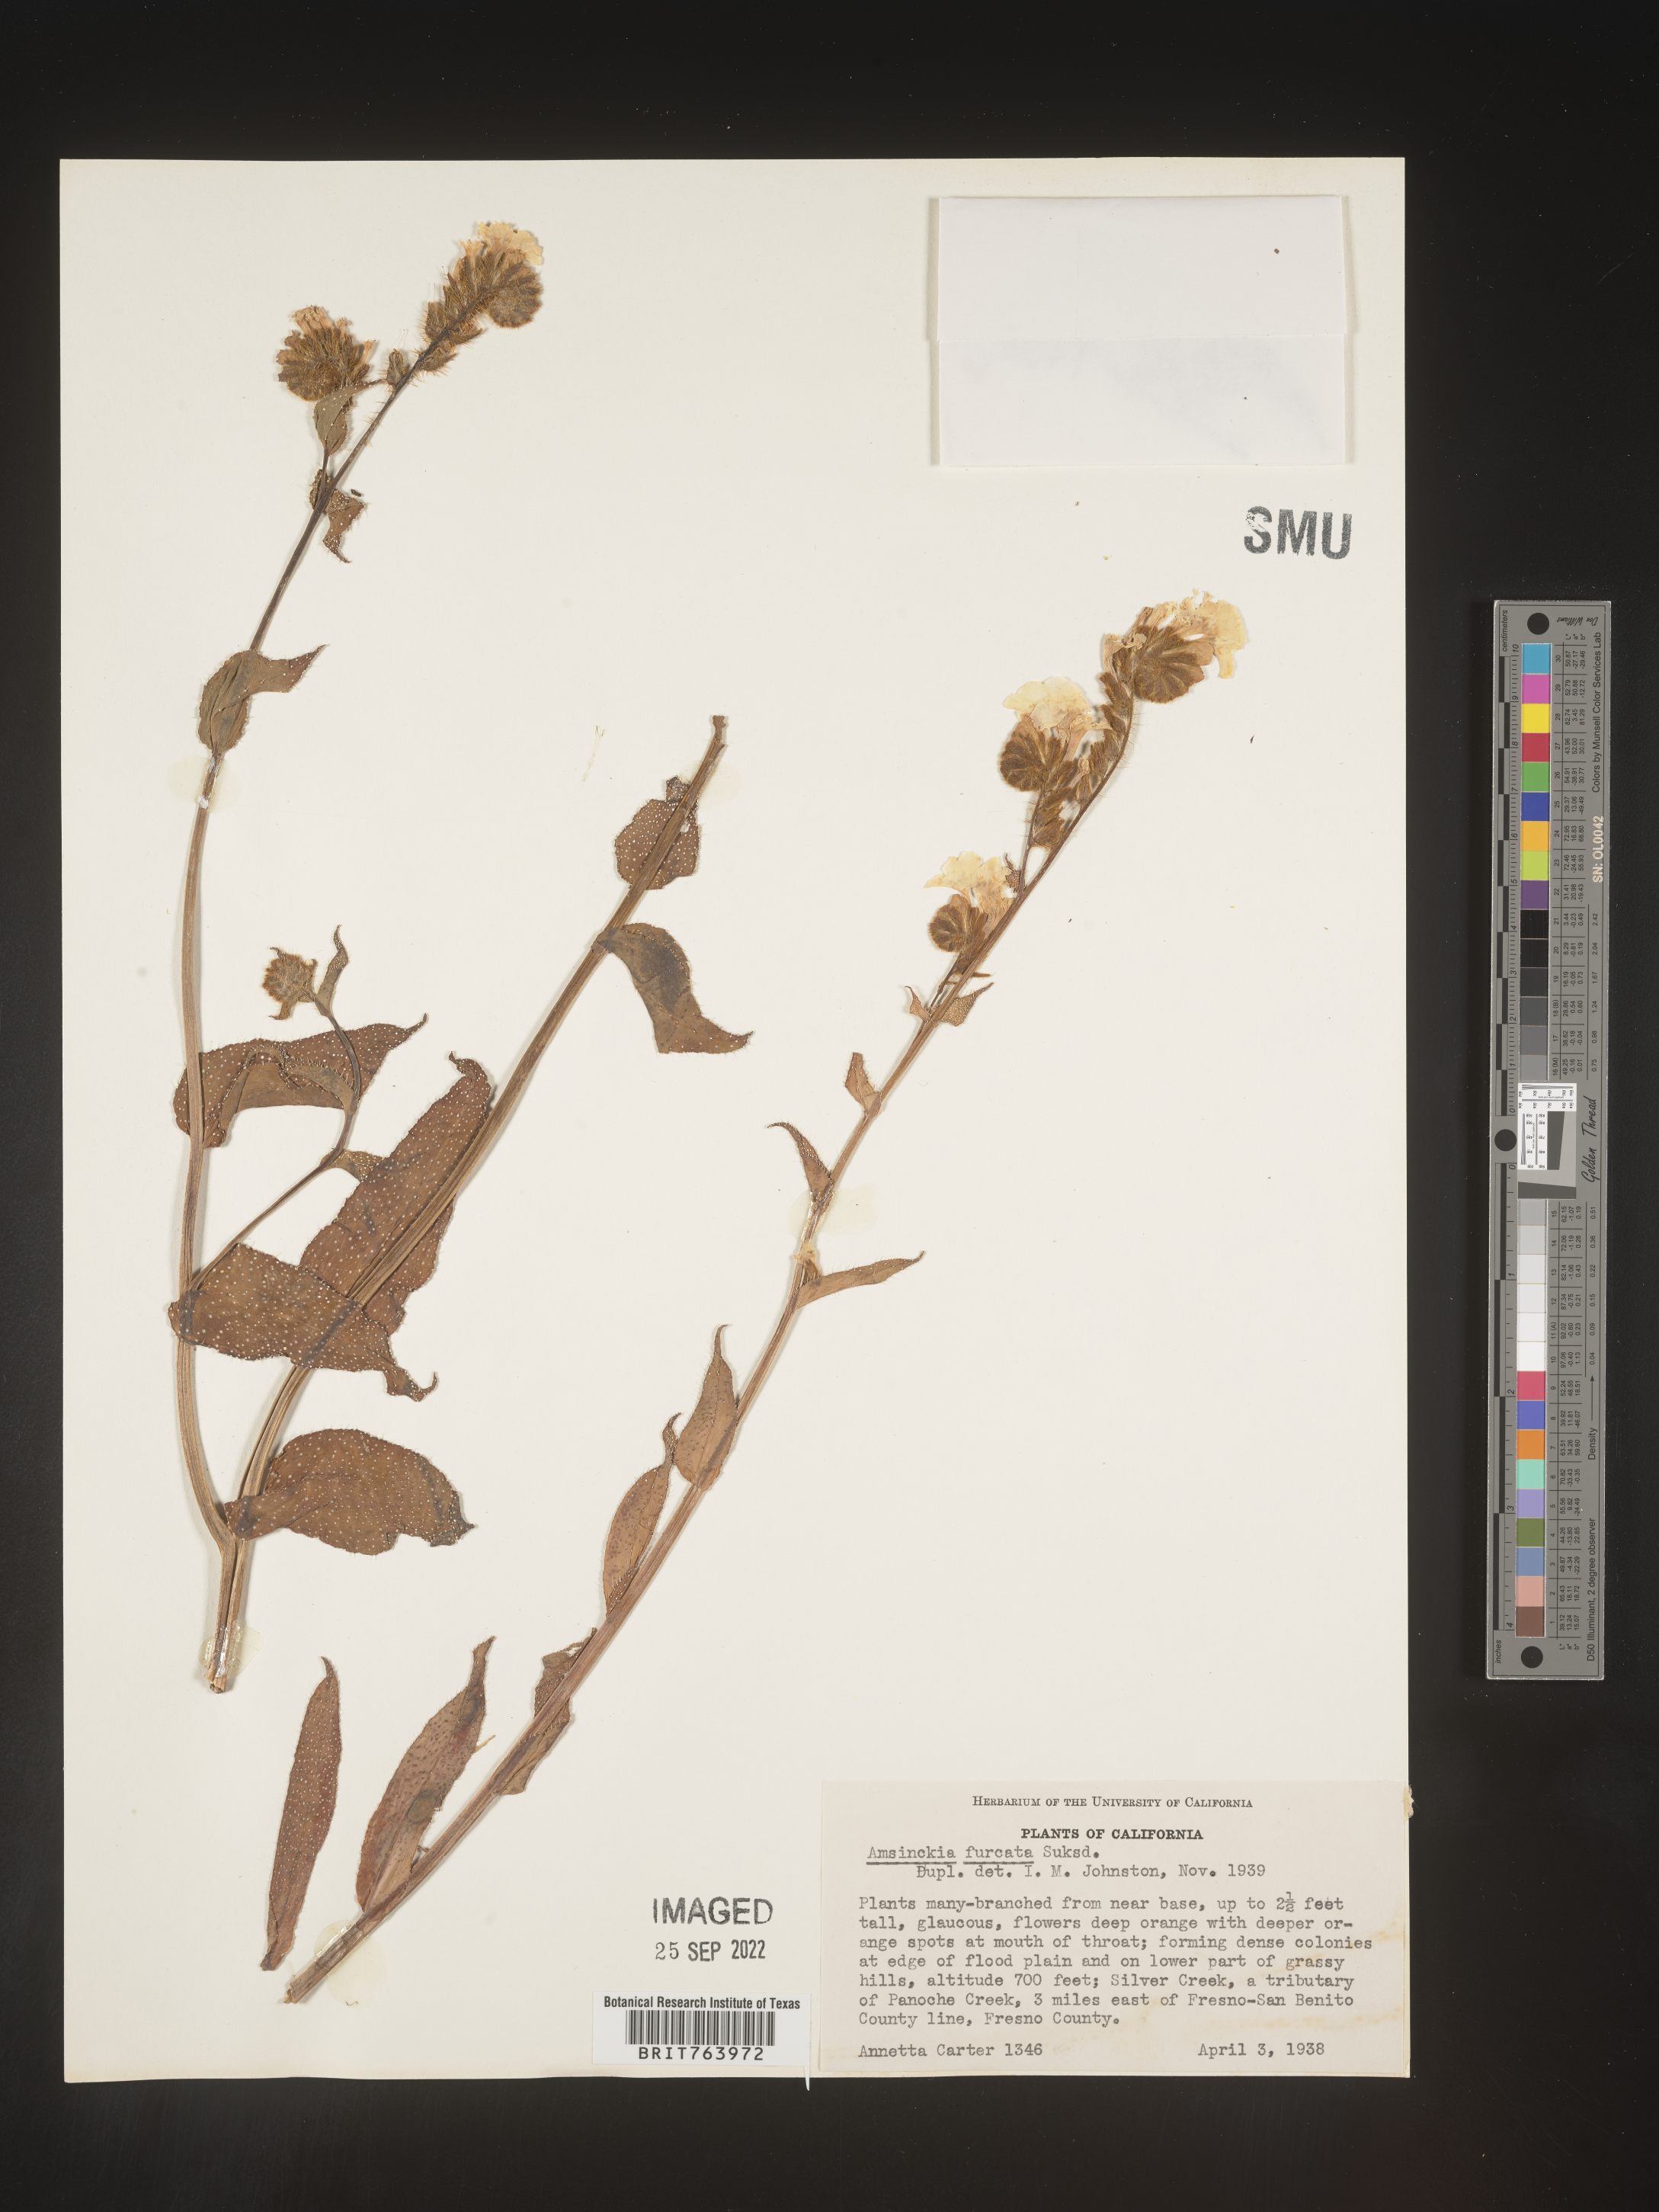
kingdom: Plantae
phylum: Tracheophyta
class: Magnoliopsida
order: Boraginales
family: Boraginaceae
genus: Amsinckia
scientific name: Amsinckia
